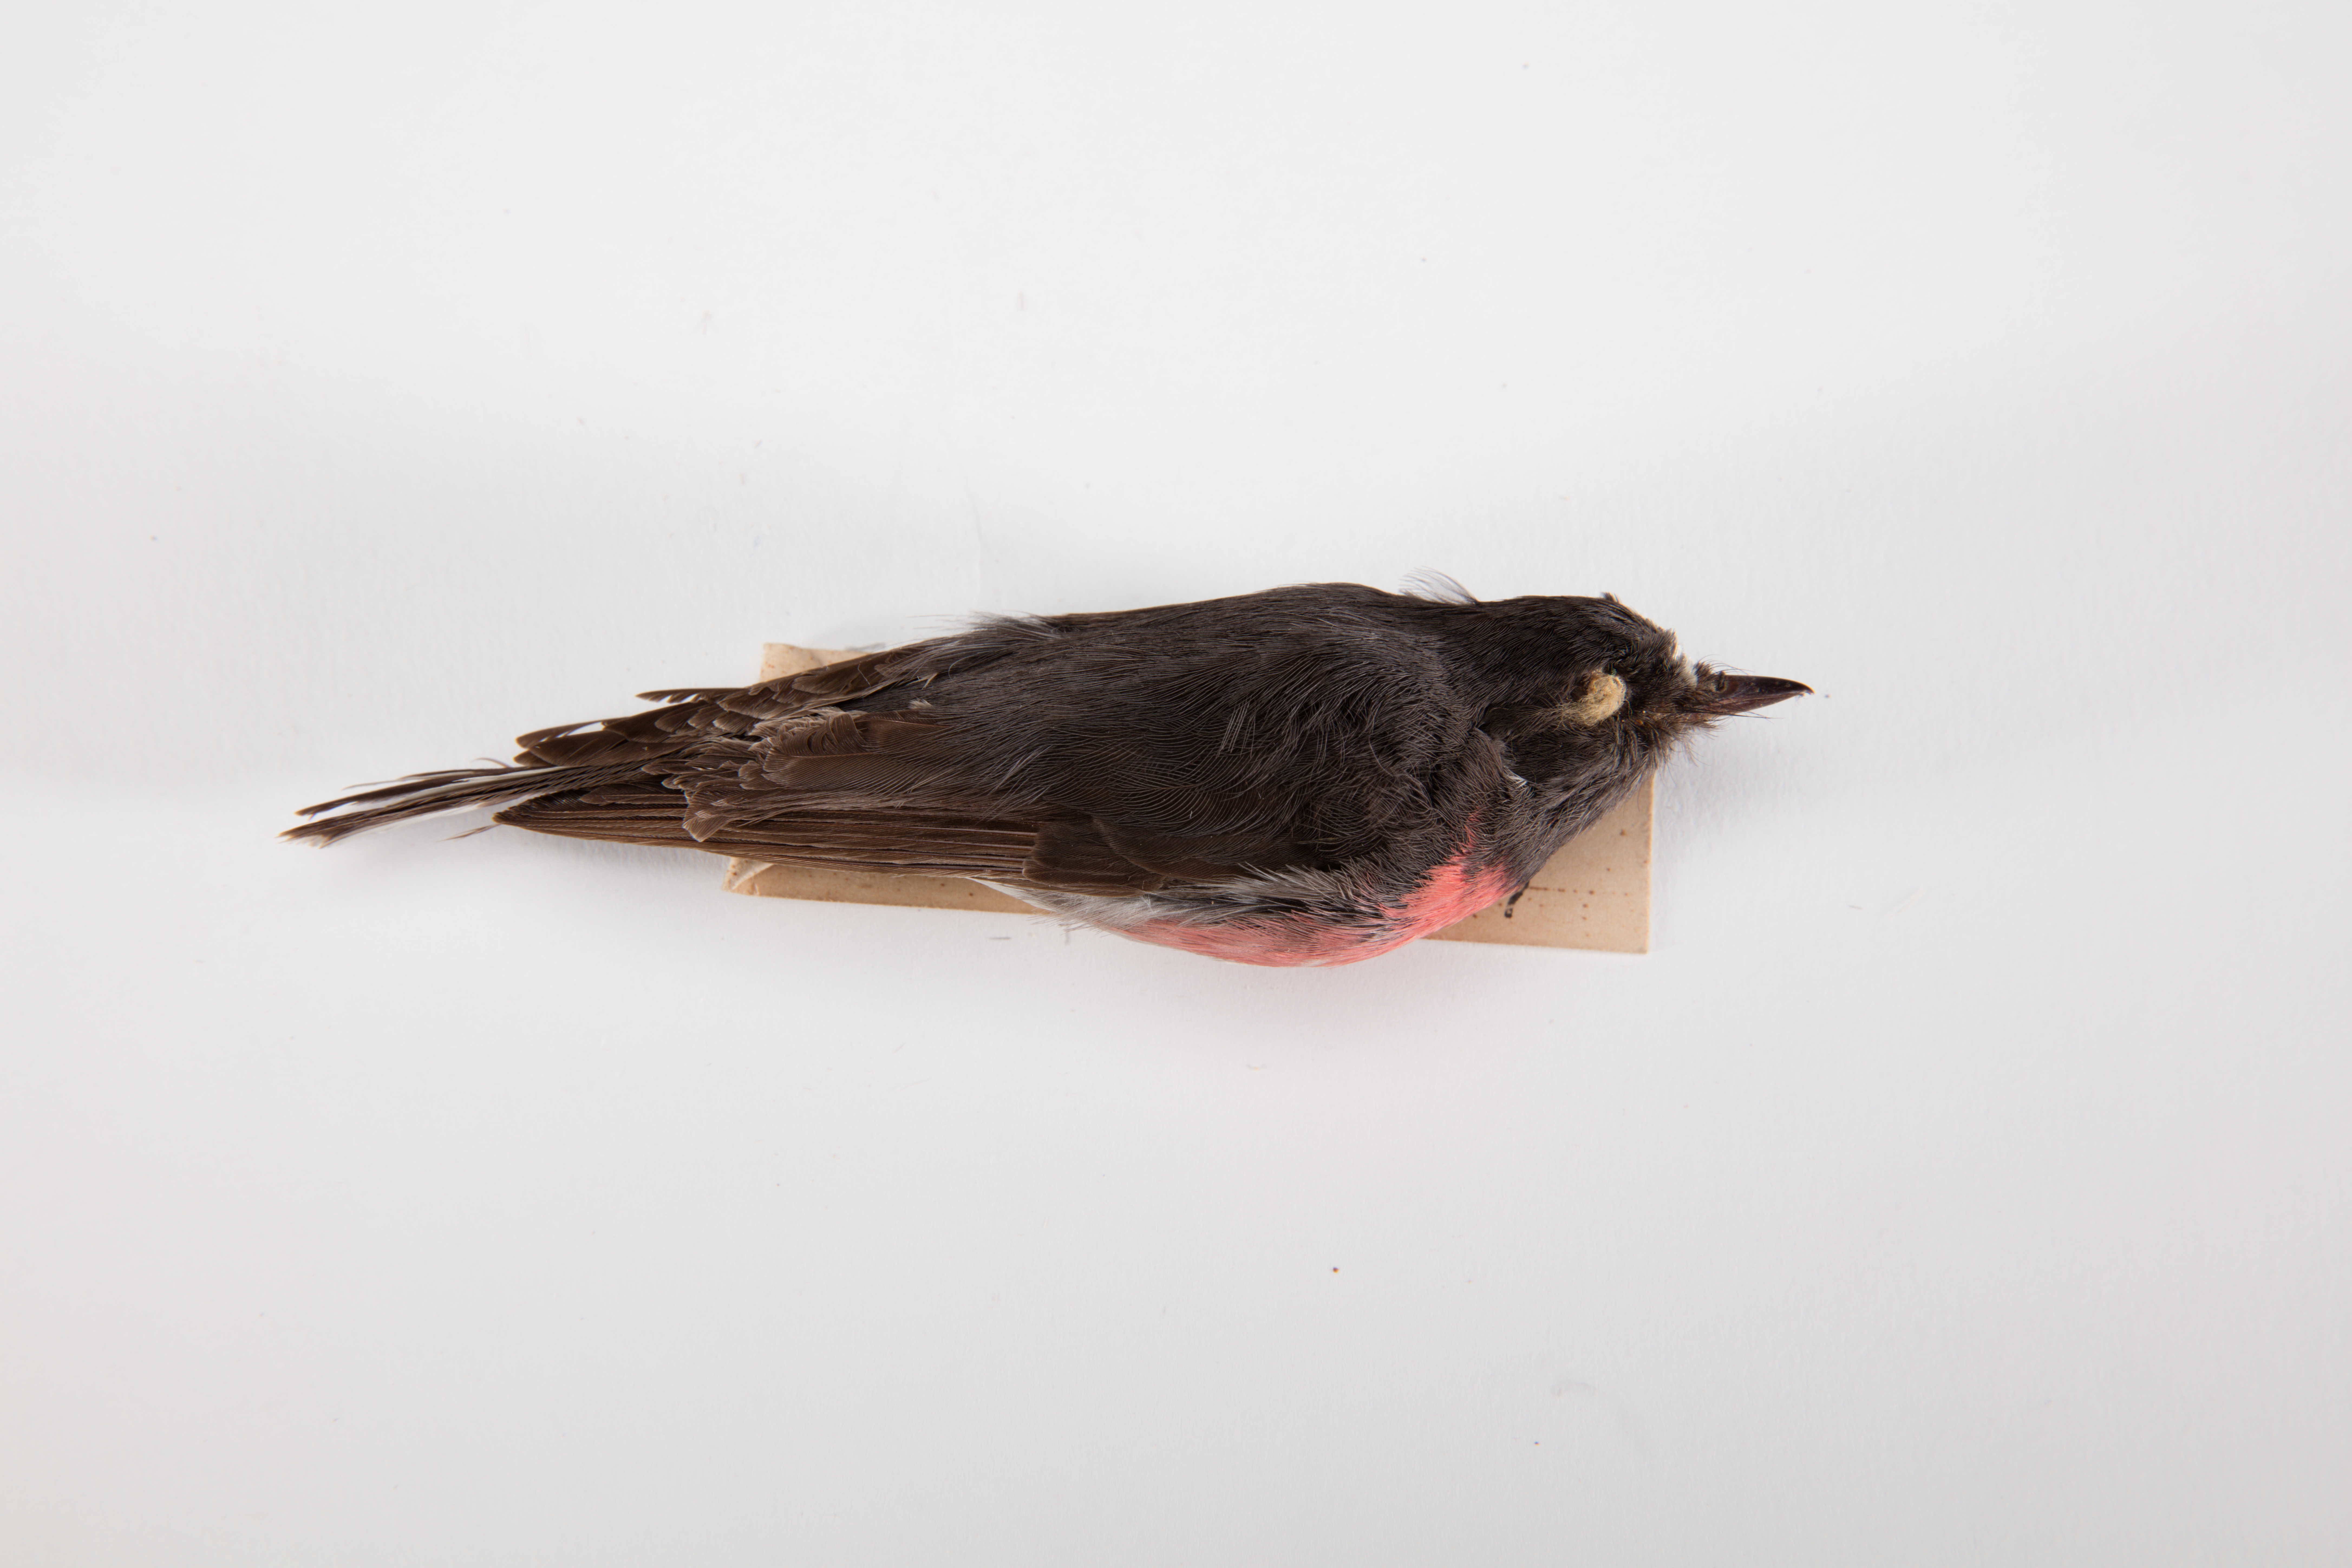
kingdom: Animalia
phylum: Chordata
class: Aves
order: Passeriformes
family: Petroicidae
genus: Petroica
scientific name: Petroica rosea
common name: Rose robin
